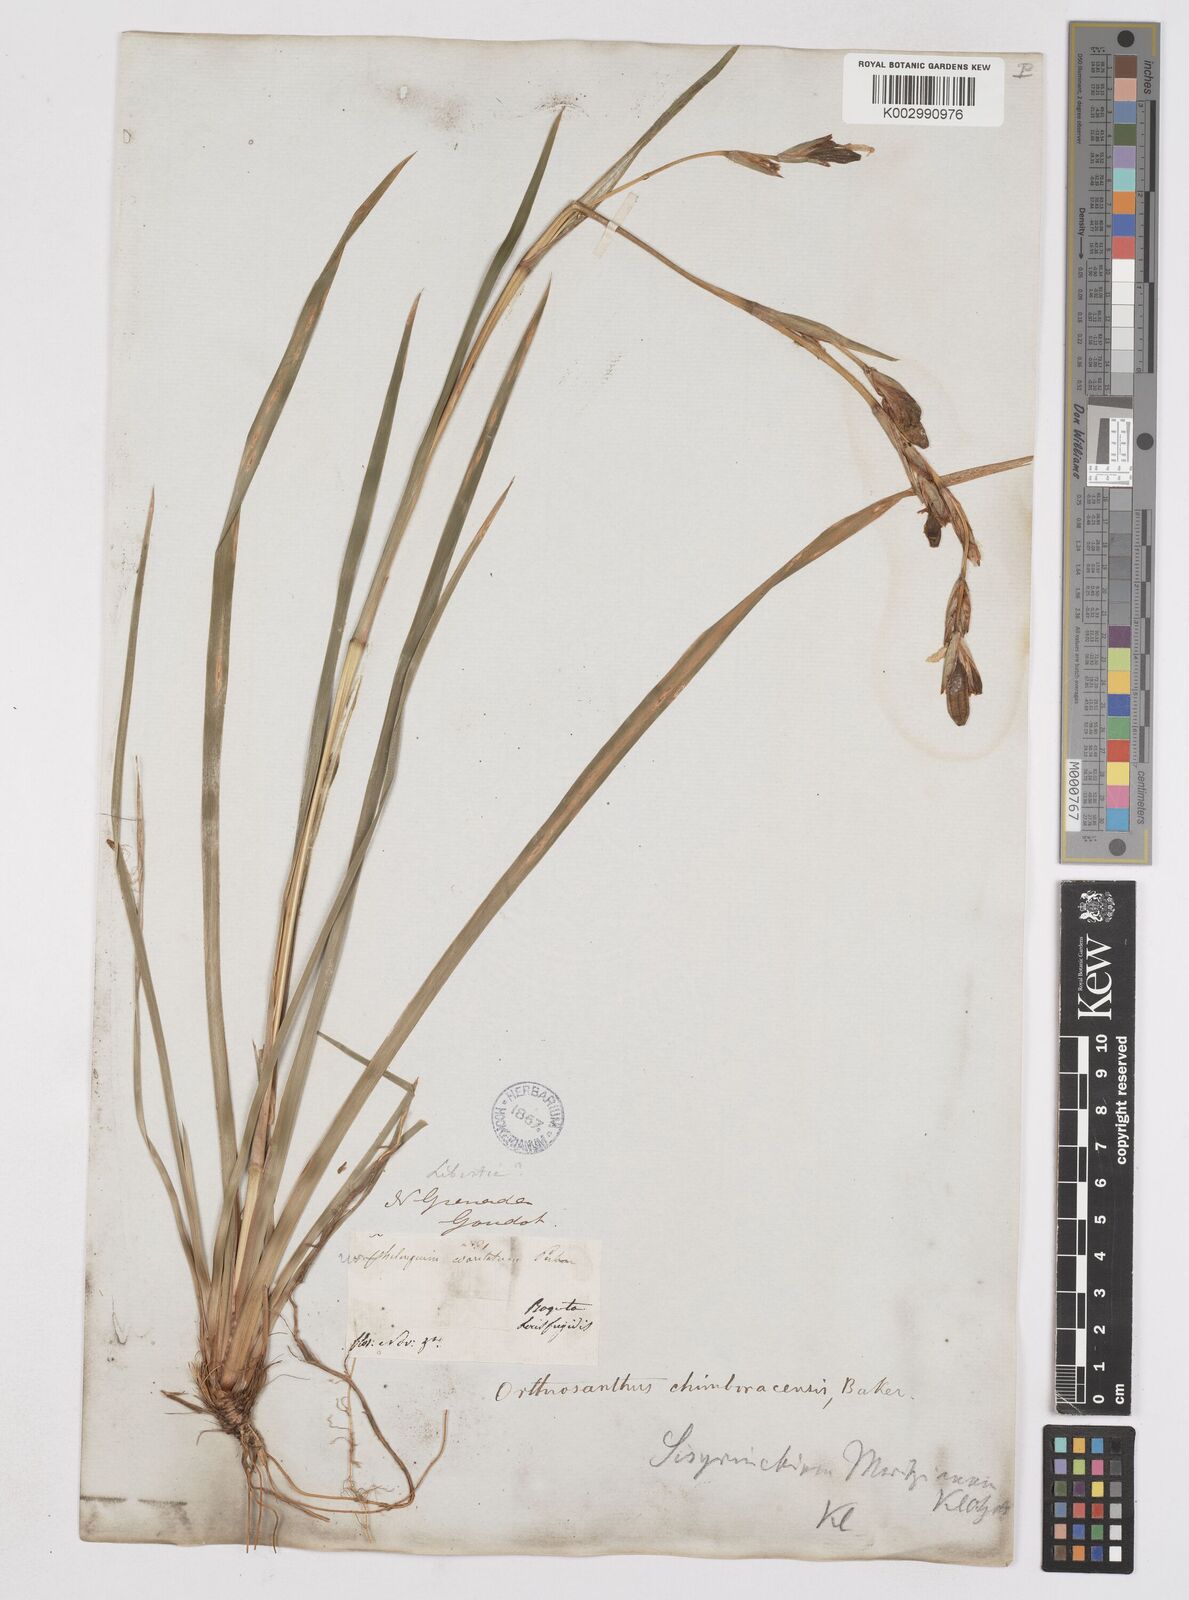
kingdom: Plantae
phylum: Tracheophyta
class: Liliopsida
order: Asparagales
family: Iridaceae
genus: Orthrosanthus
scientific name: Orthrosanthus chimboracensis
